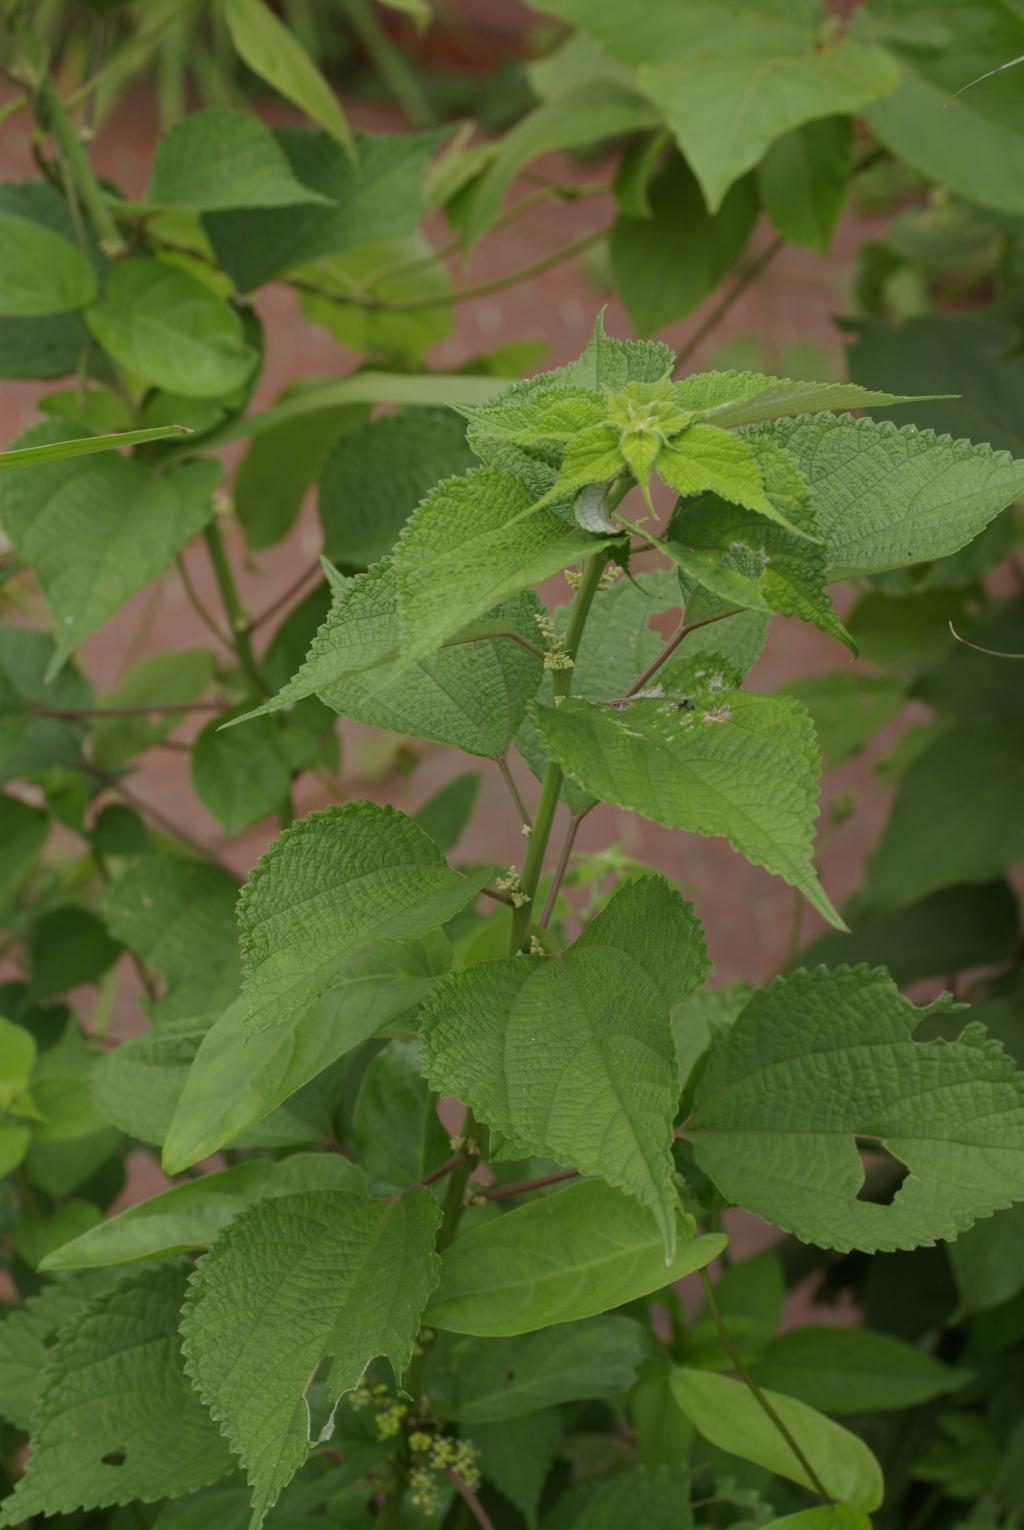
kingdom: Plantae
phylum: Tracheophyta
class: Magnoliopsida
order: Rosales
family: Urticaceae
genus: Boehmeria
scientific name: Boehmeria nivea
